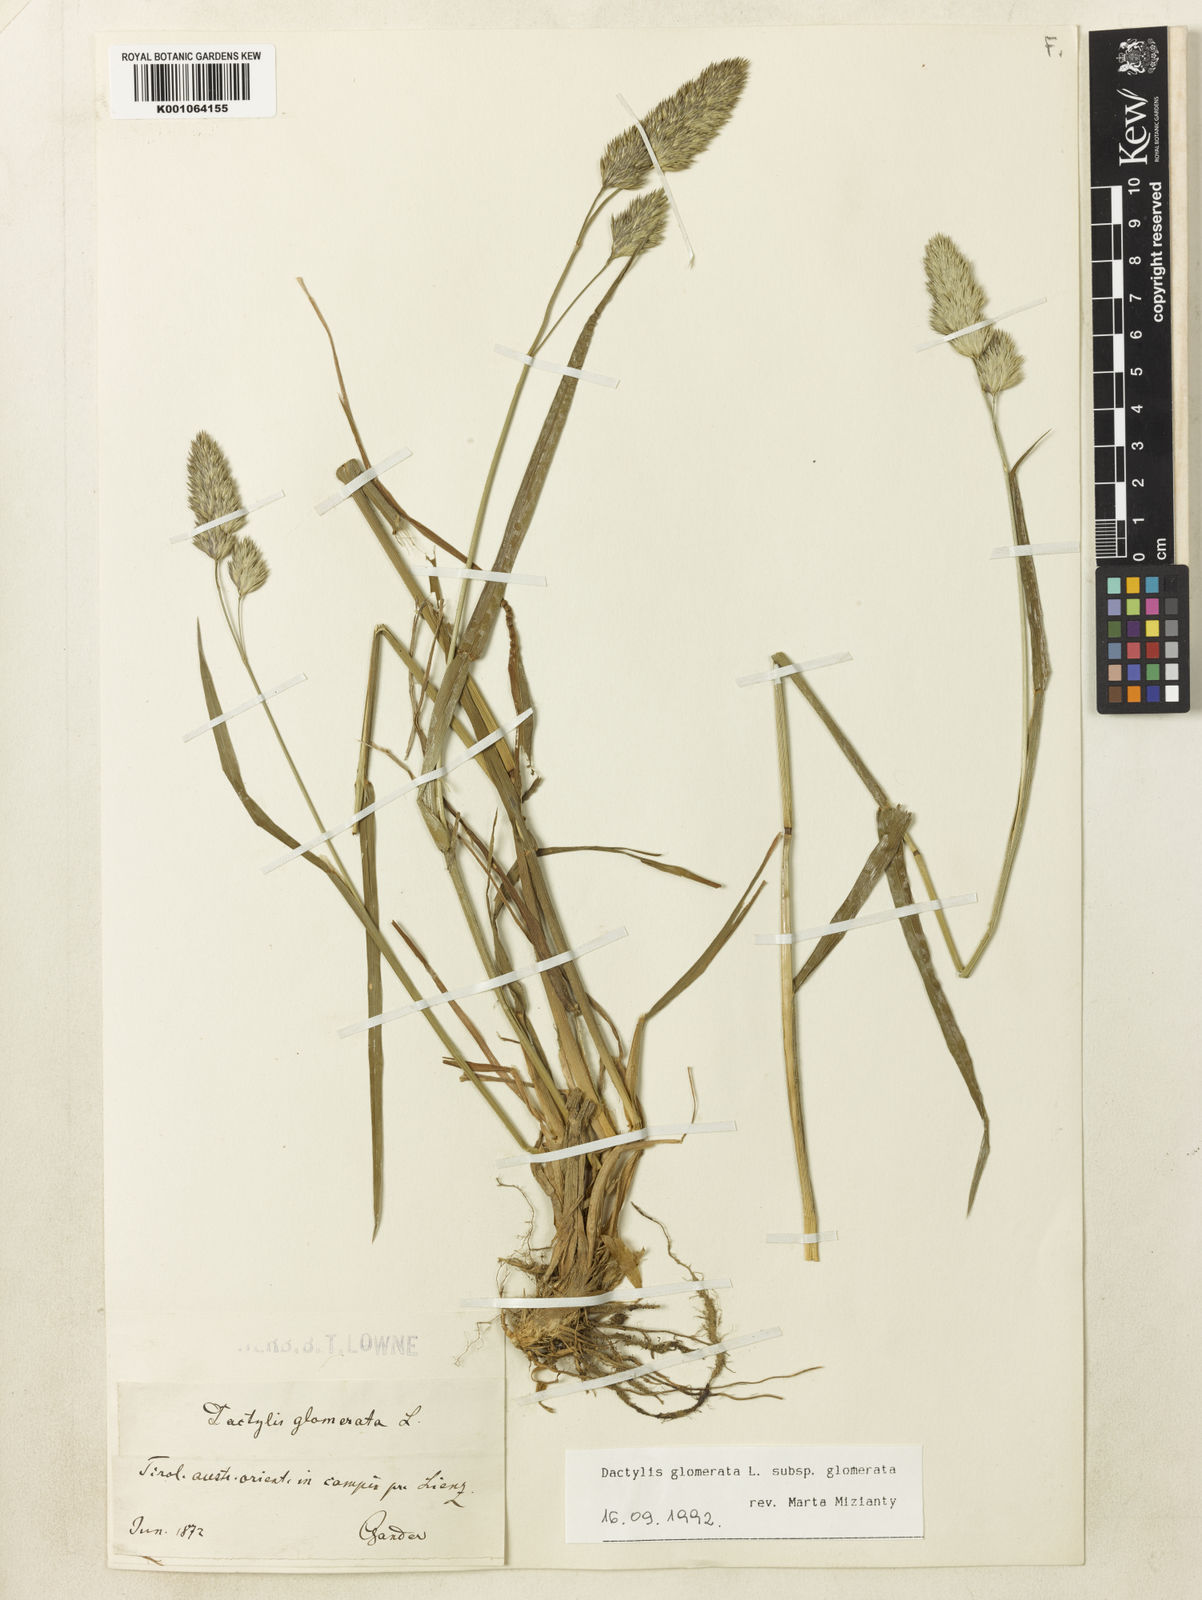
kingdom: Plantae
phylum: Tracheophyta
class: Liliopsida
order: Poales
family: Poaceae
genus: Dactylis
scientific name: Dactylis glomerata
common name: Orchardgrass
